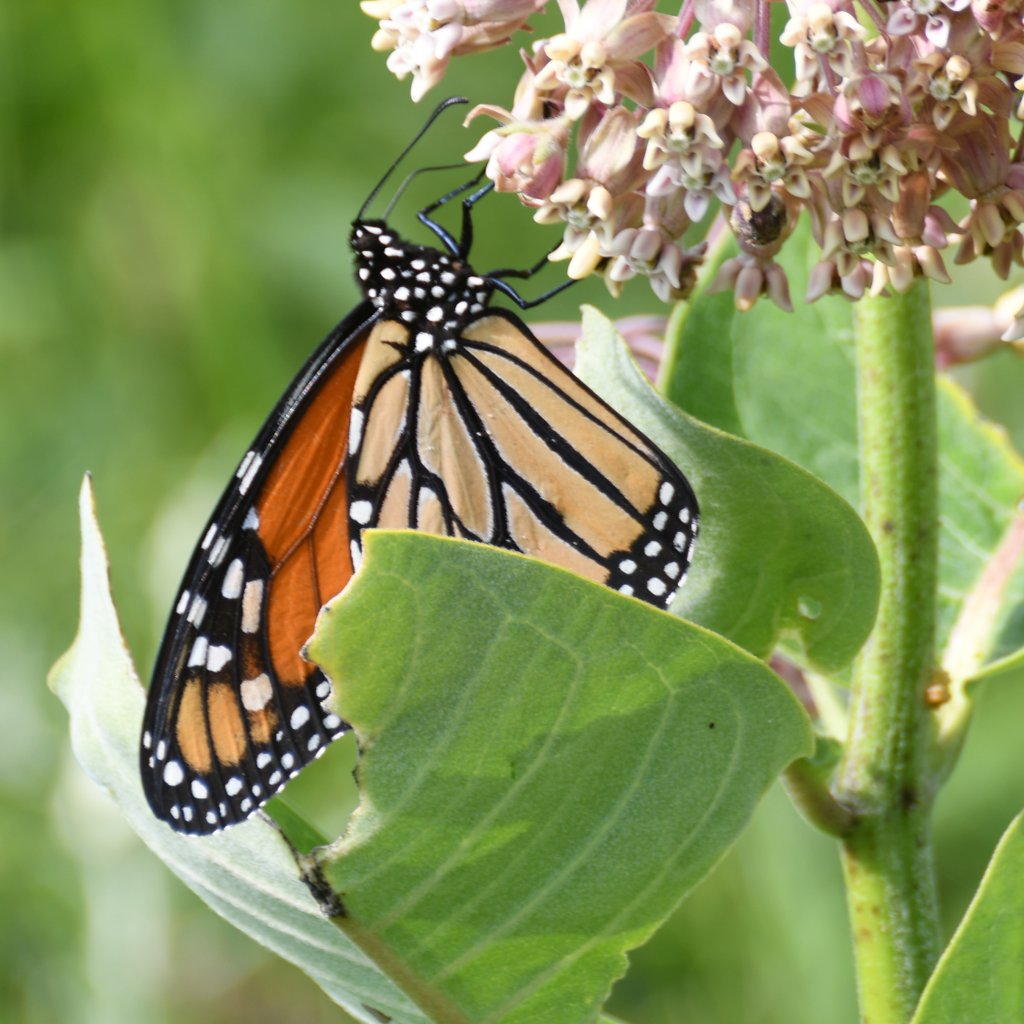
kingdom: Animalia
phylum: Arthropoda
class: Insecta
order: Lepidoptera
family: Nymphalidae
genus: Danaus
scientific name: Danaus plexippus
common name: Monarch
